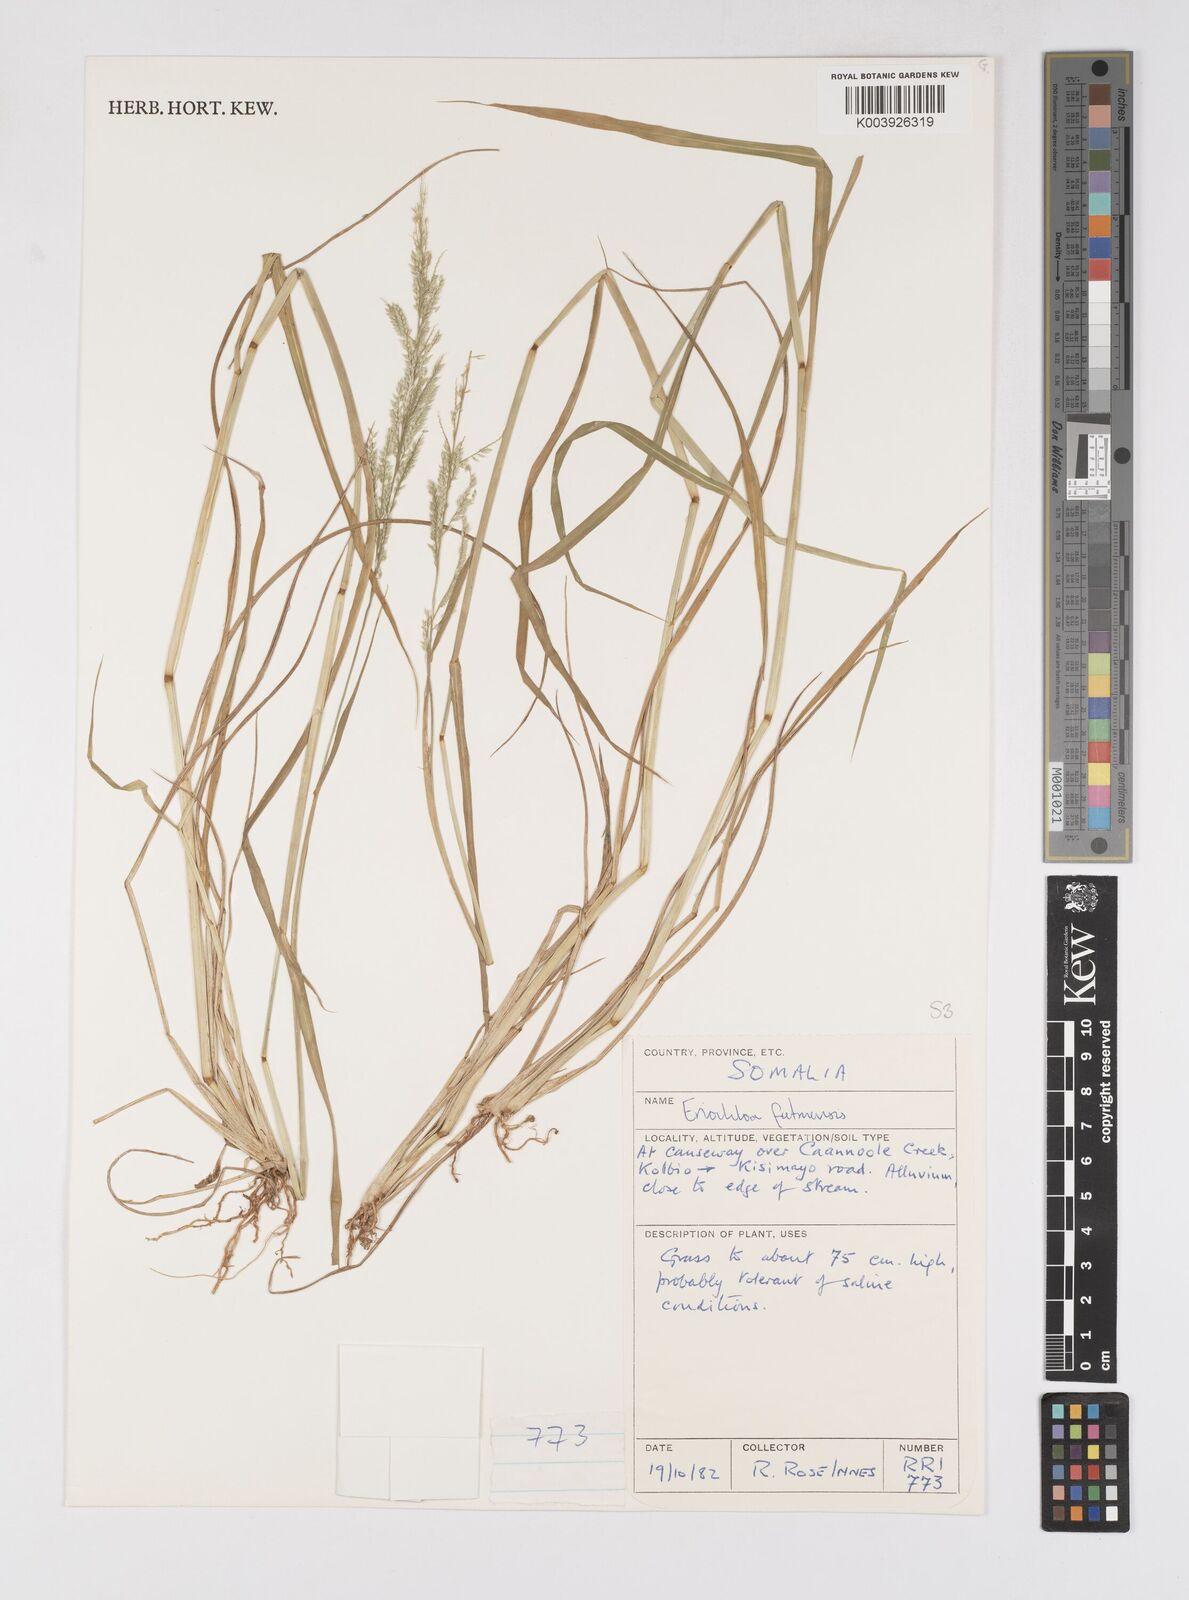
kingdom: Plantae
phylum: Tracheophyta
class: Liliopsida
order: Poales
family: Poaceae
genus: Eriochloa
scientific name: Eriochloa barbatus
